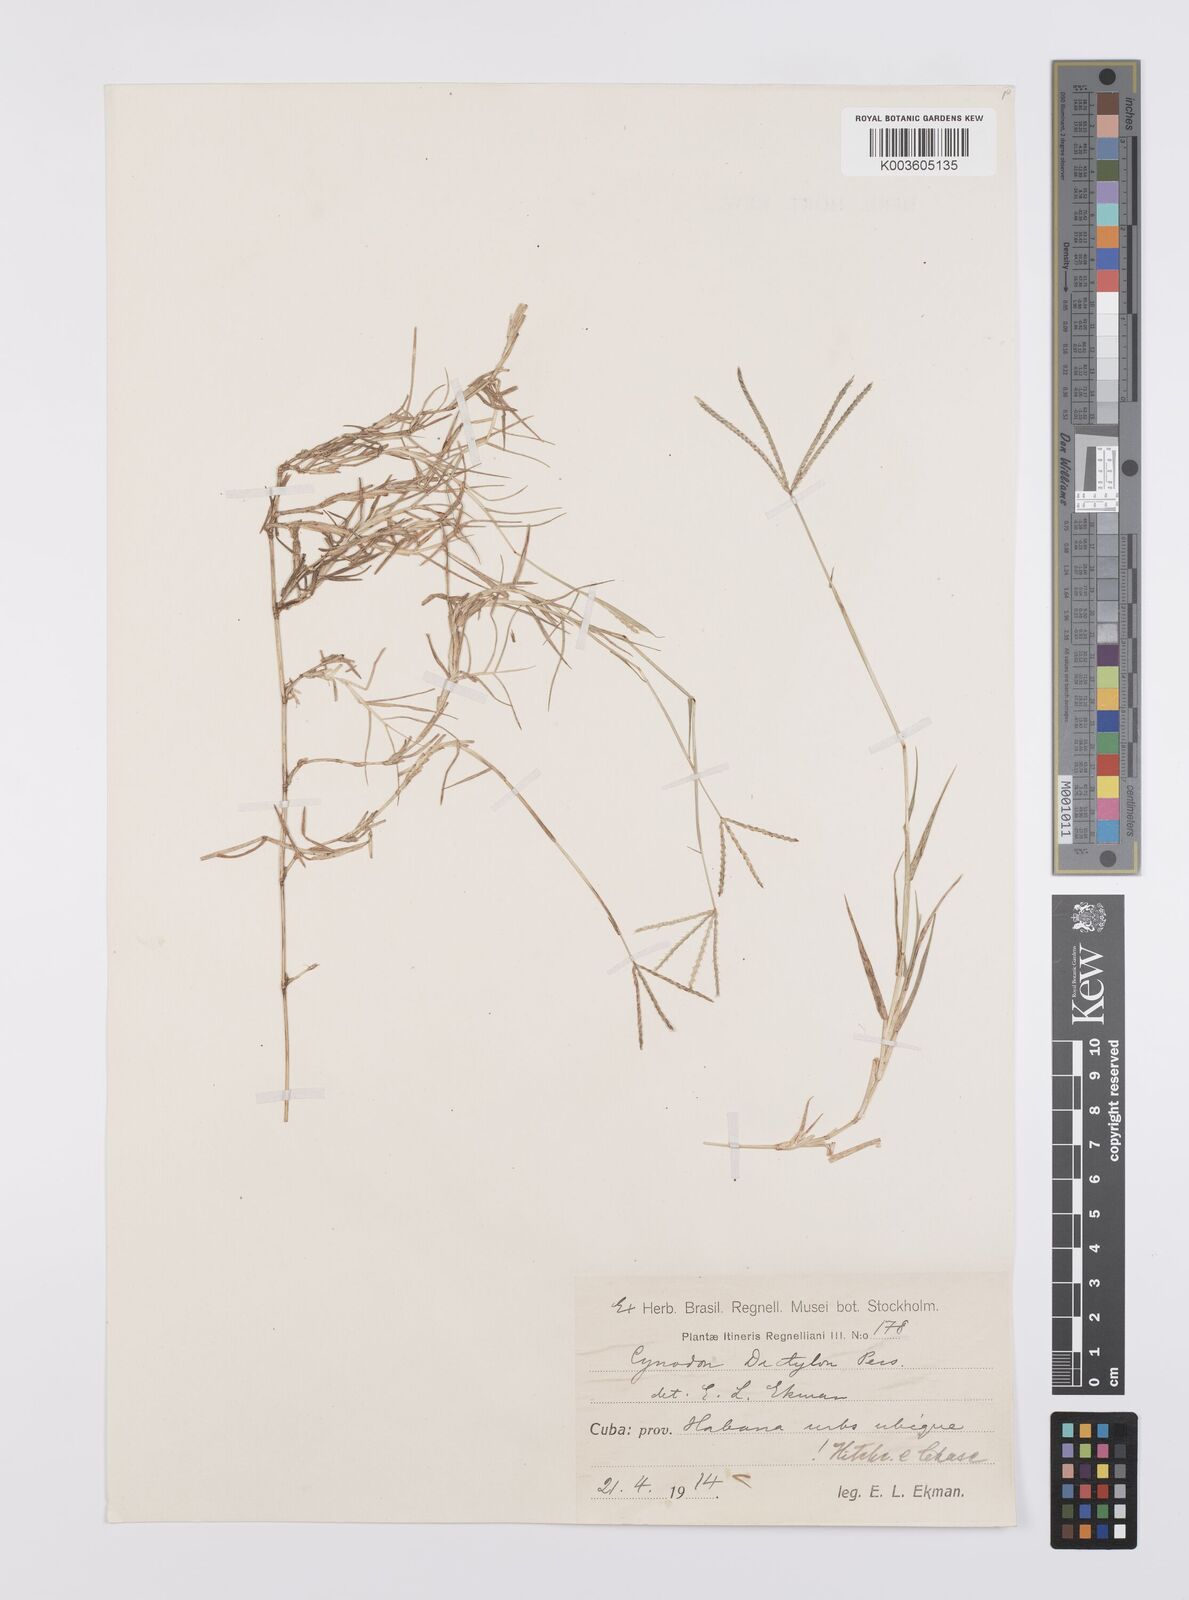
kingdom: Plantae
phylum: Tracheophyta
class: Liliopsida
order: Poales
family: Poaceae
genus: Cynodon
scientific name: Cynodon dactylon
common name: Bermuda grass
